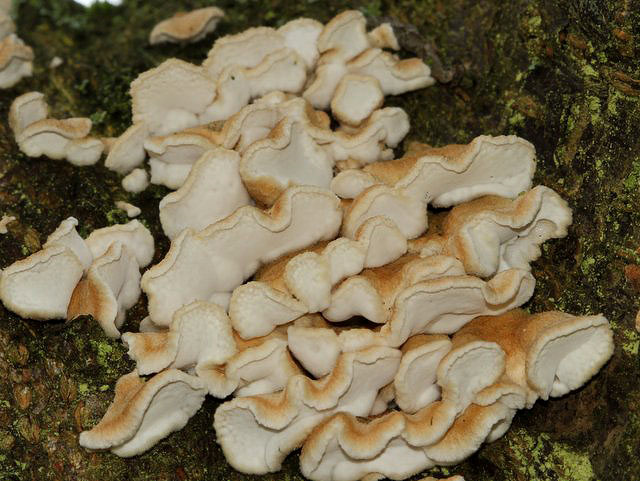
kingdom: Fungi
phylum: Basidiomycota
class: Agaricomycetes
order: Amylocorticiales
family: Amylocorticiaceae
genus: Plicaturopsis
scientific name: Plicaturopsis crispa
